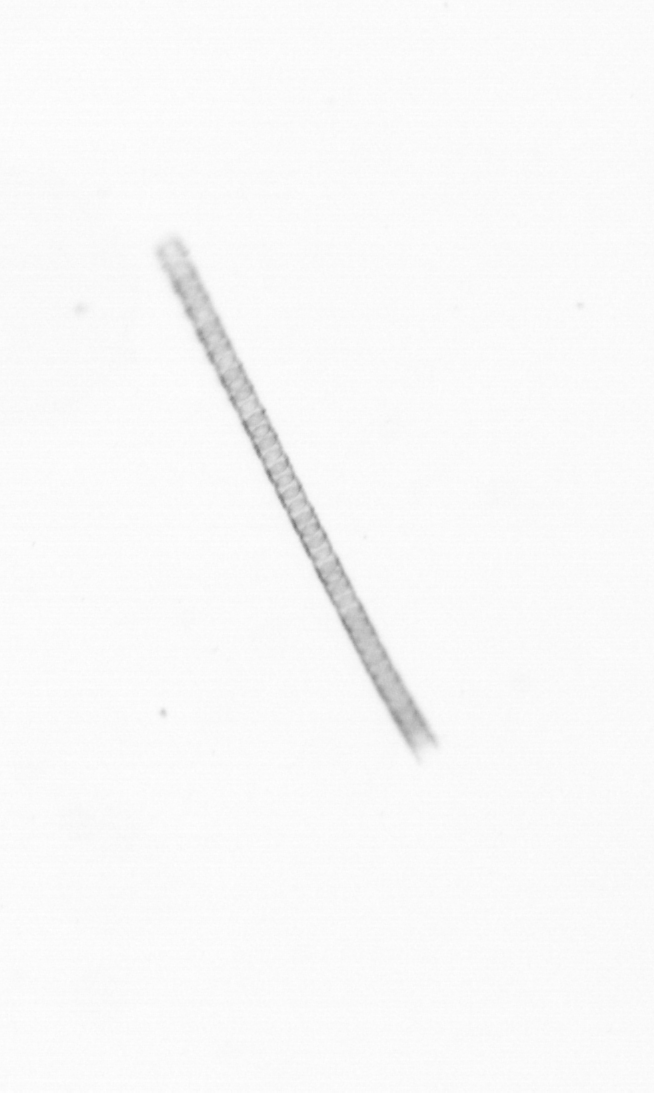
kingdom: Chromista
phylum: Ochrophyta
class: Bacillariophyceae
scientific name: Bacillariophyceae
